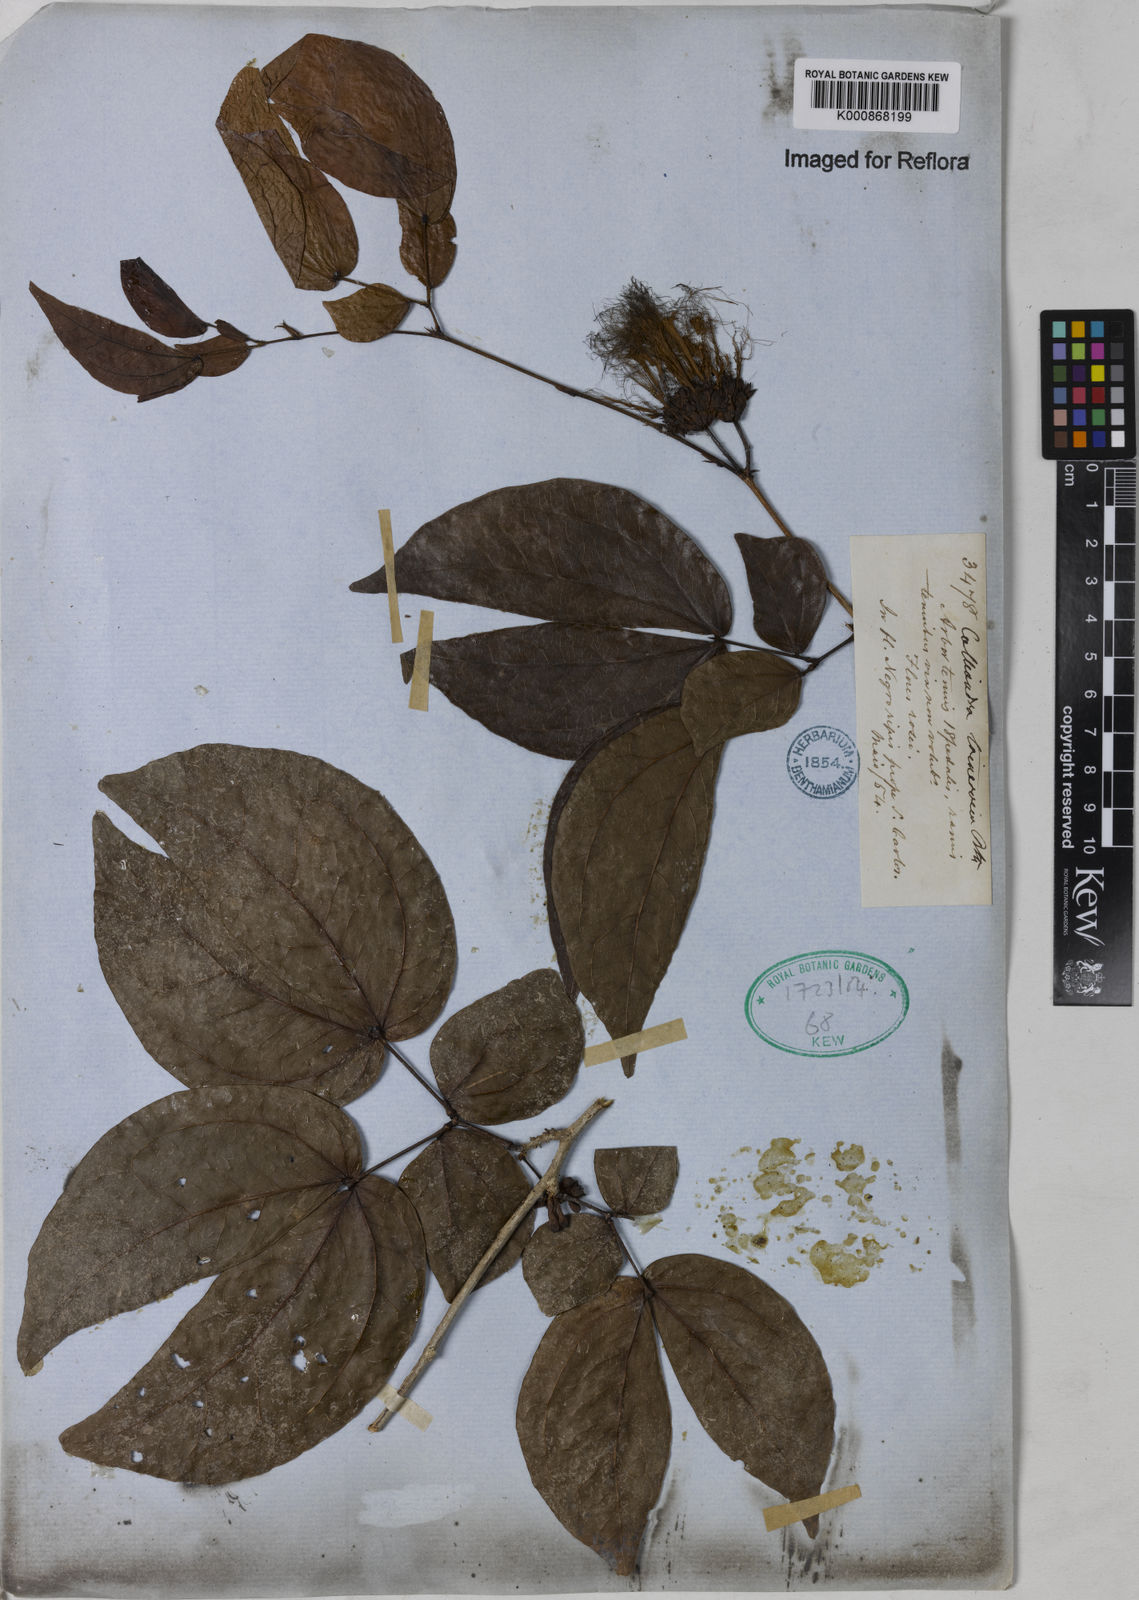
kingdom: Plantae
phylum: Tracheophyta
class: Magnoliopsida
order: Fabales
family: Fabaceae
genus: Calliandra
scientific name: Calliandra trinervia
